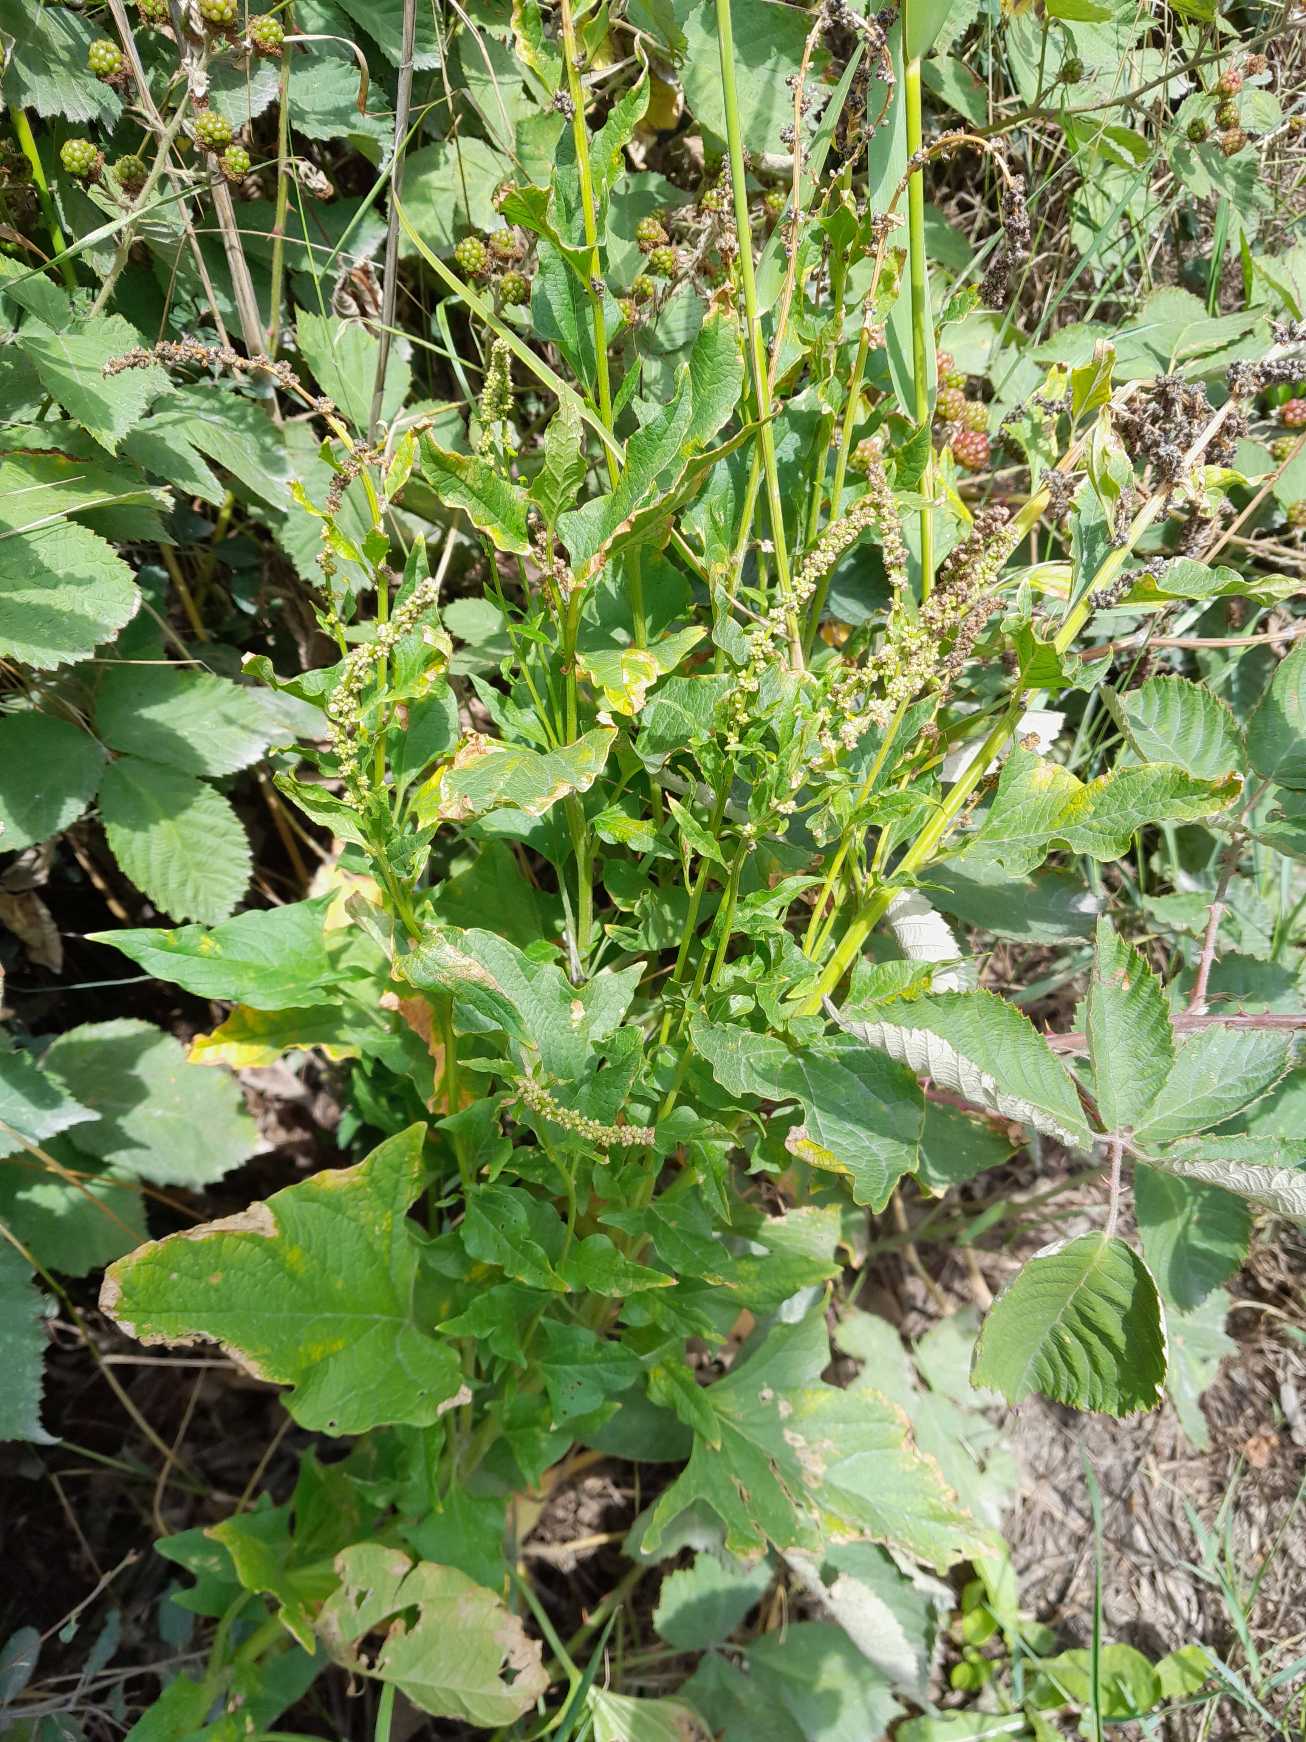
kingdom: Plantae
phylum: Tracheophyta
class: Magnoliopsida
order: Caryophyllales
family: Amaranthaceae
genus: Blitum
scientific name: Blitum bonus-henricus
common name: Stolthenriks-gåsefod
